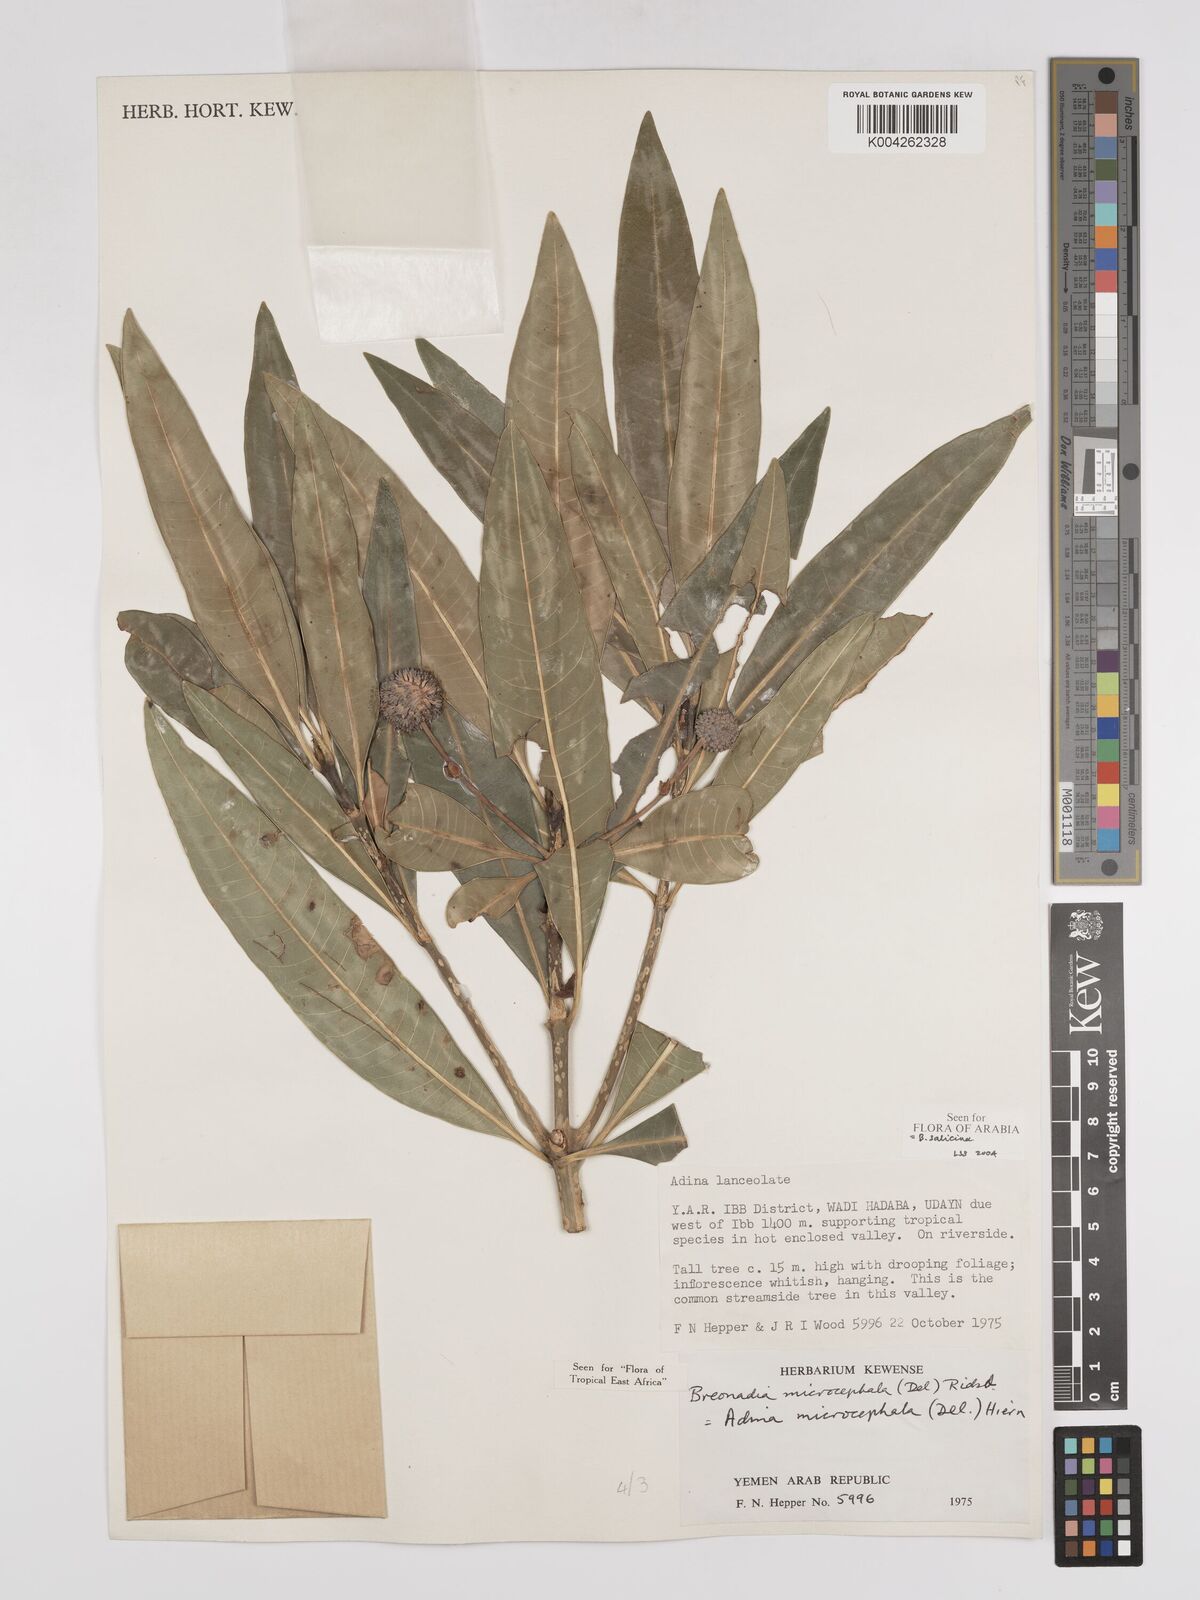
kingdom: Plantae
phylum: Tracheophyta
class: Magnoliopsida
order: Gentianales
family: Rubiaceae
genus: Breonadia
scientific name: Breonadia salicina
